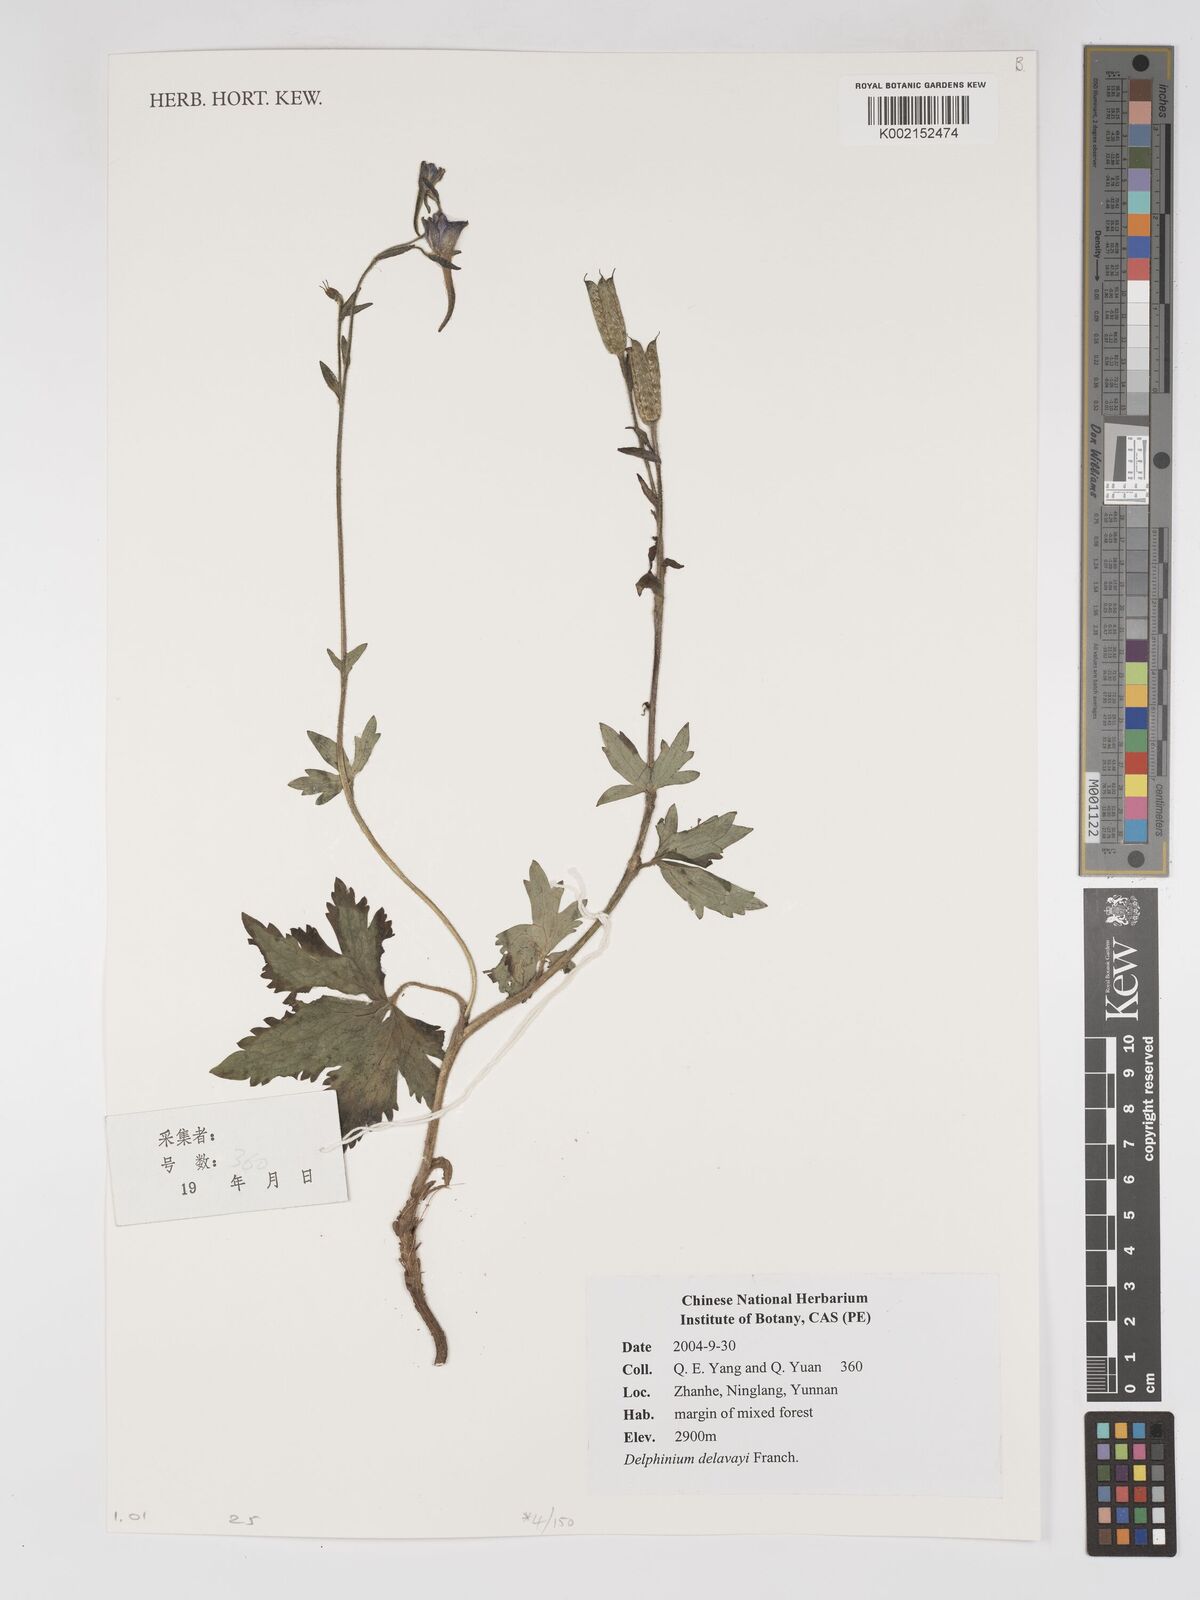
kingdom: Plantae
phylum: Tracheophyta
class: Magnoliopsida
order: Ranunculales
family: Ranunculaceae
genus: Delphinium
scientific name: Delphinium delavayi
